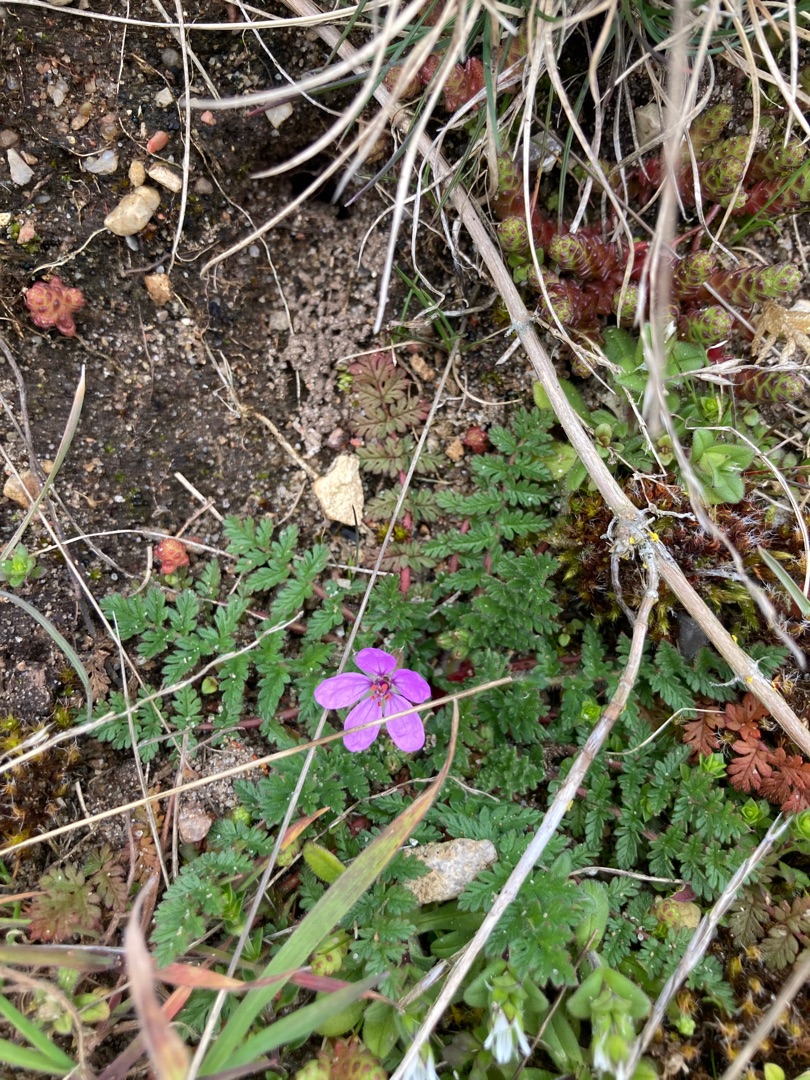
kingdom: Plantae
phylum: Tracheophyta
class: Magnoliopsida
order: Geraniales
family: Geraniaceae
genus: Erodium
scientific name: Erodium cicutarium
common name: Hejrenæb
